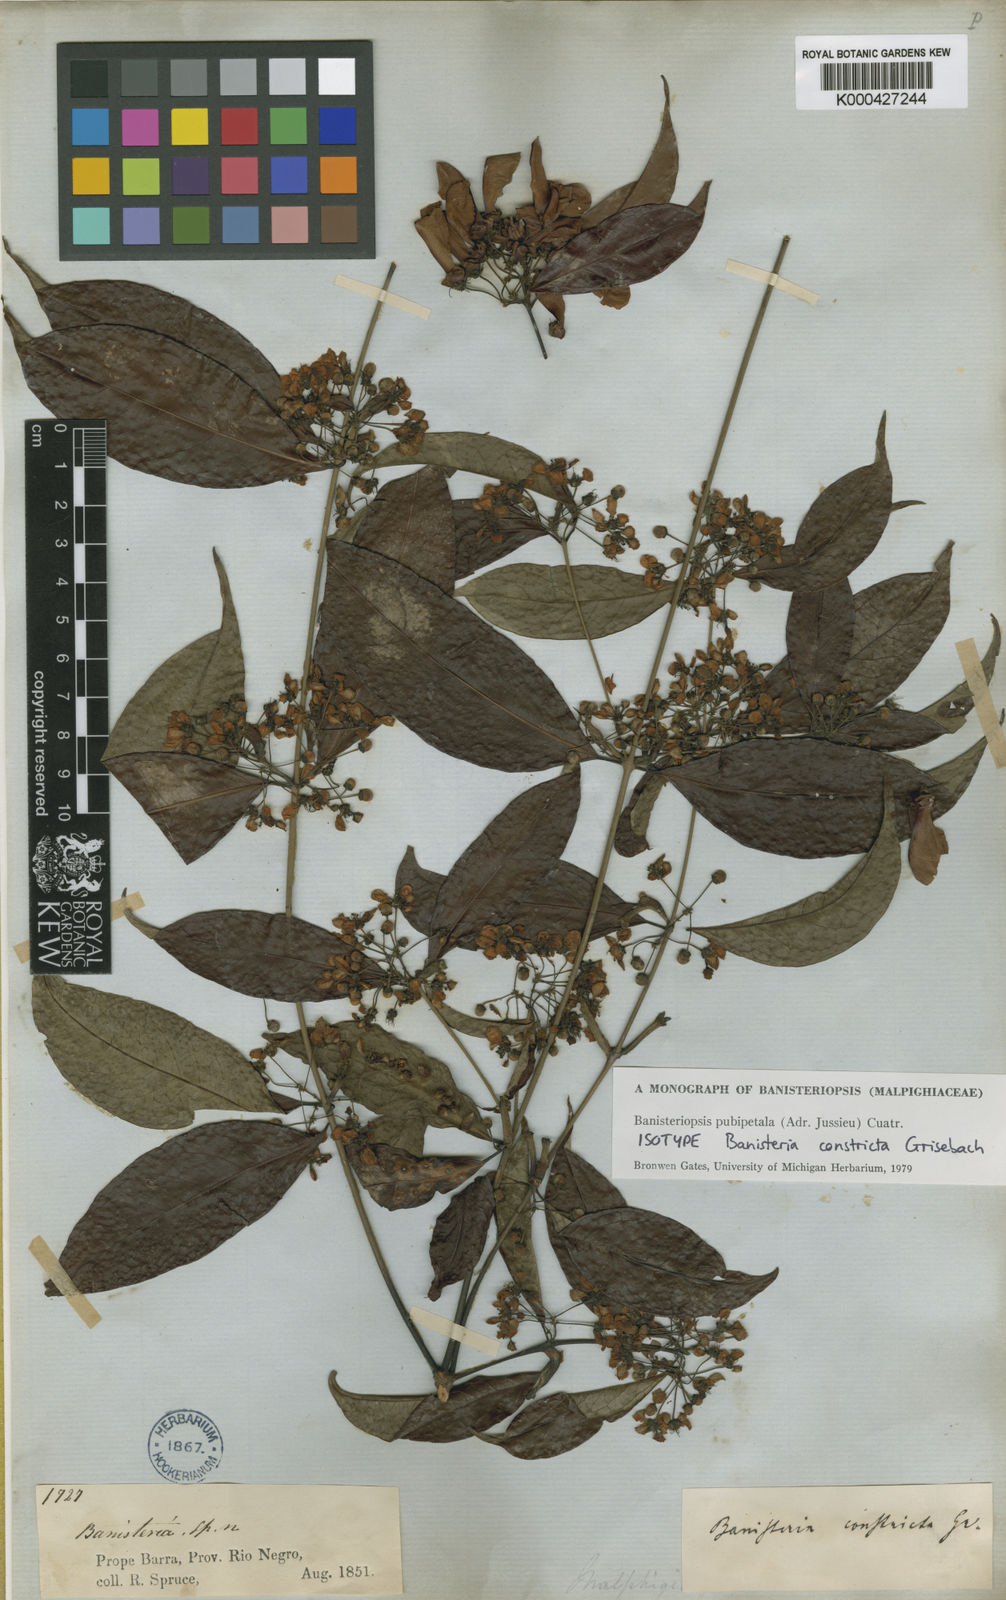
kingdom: Plantae
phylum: Tracheophyta
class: Magnoliopsida
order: Malpighiales
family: Malpighiaceae
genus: Diplopterys
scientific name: Diplopterys pubipetala
